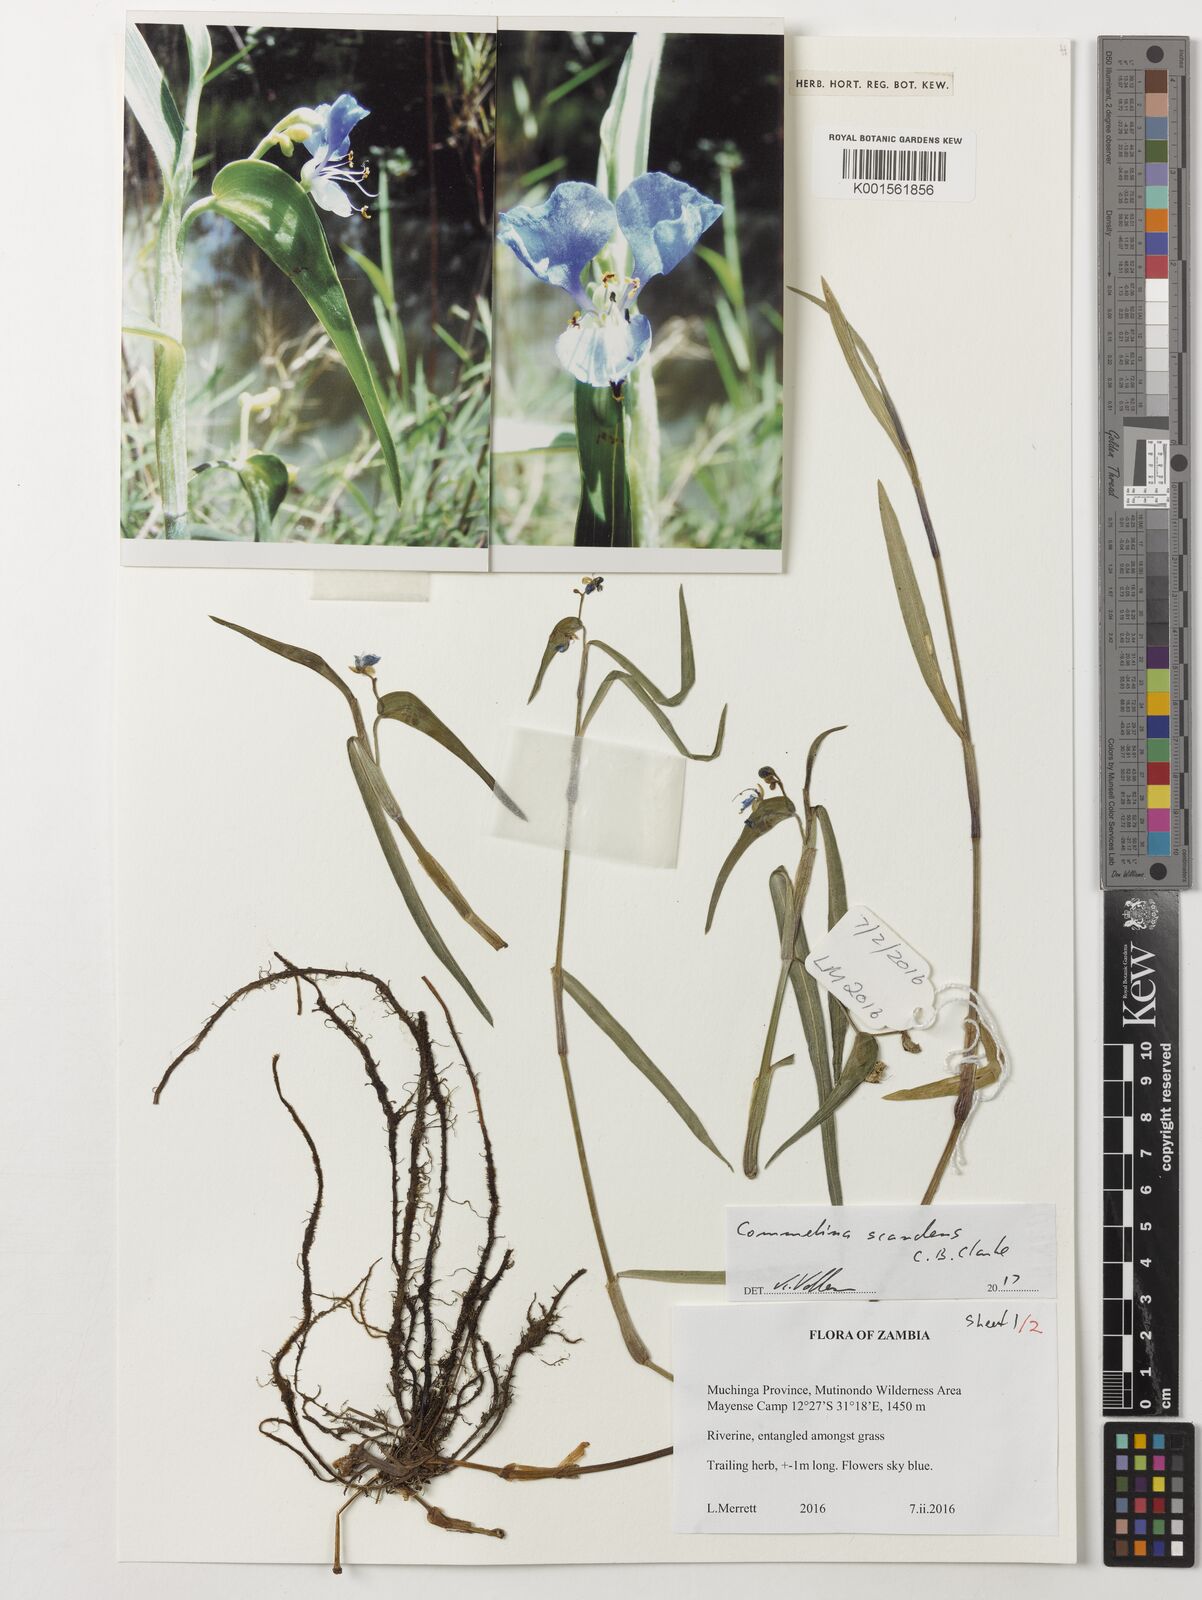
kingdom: Plantae
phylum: Tracheophyta
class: Liliopsida
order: Commelinales
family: Commelinaceae
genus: Commelina
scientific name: Commelina scandens
